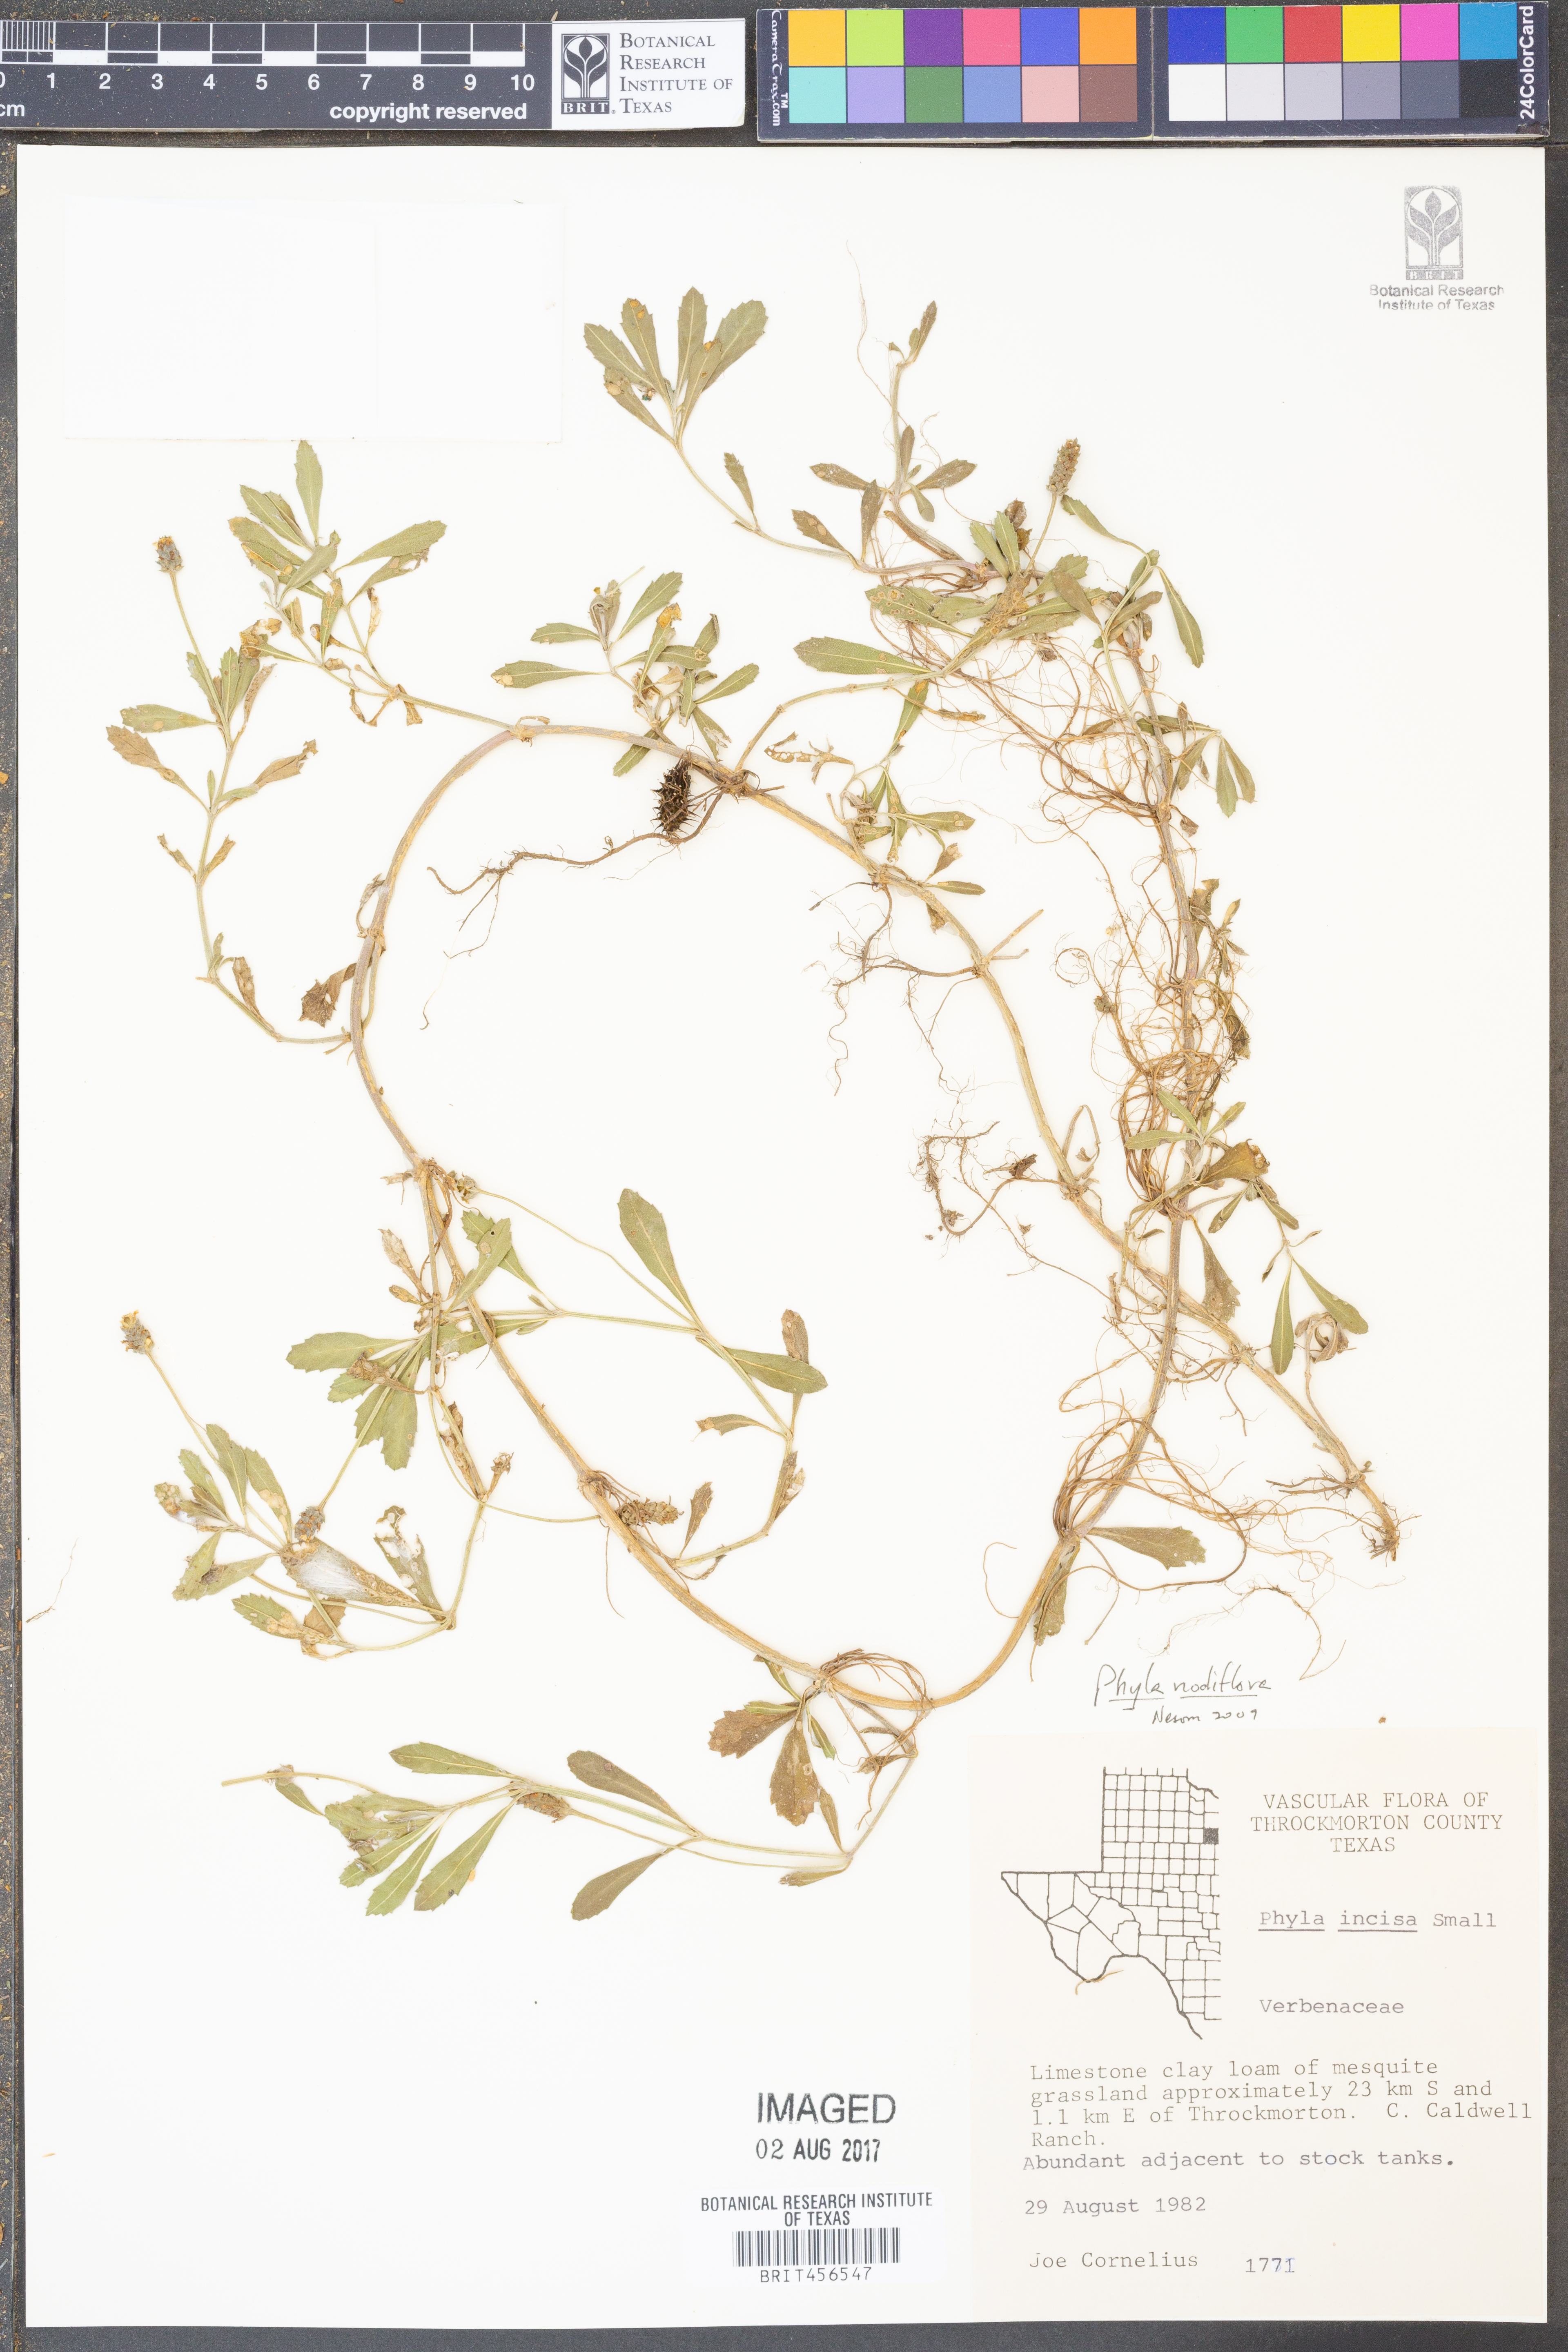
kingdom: Plantae
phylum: Tracheophyta
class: Magnoliopsida
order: Lamiales
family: Verbenaceae
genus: Phyla
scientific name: Phyla nodiflora
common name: Frogfruit
